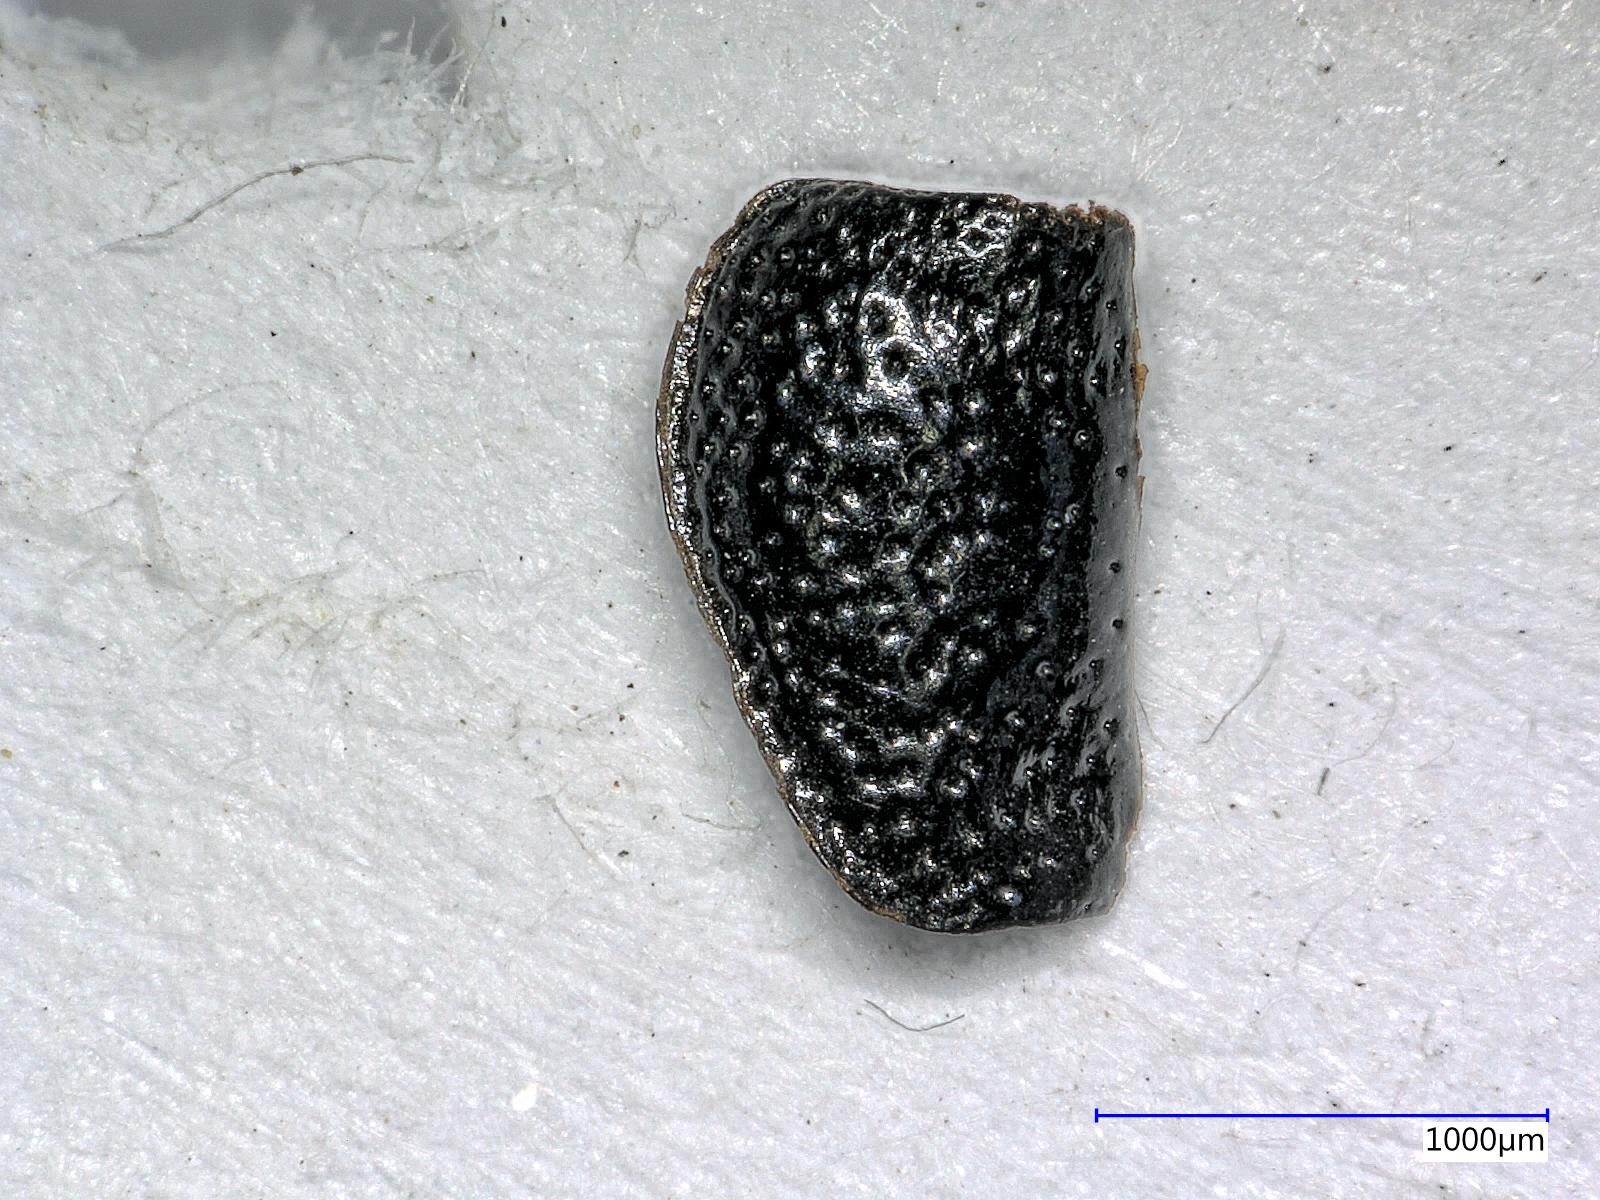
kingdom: Animalia
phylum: Arthropoda
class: Insecta
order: Coleoptera
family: Carabidae
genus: Dicheirus
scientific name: Dicheirus dilatatus
